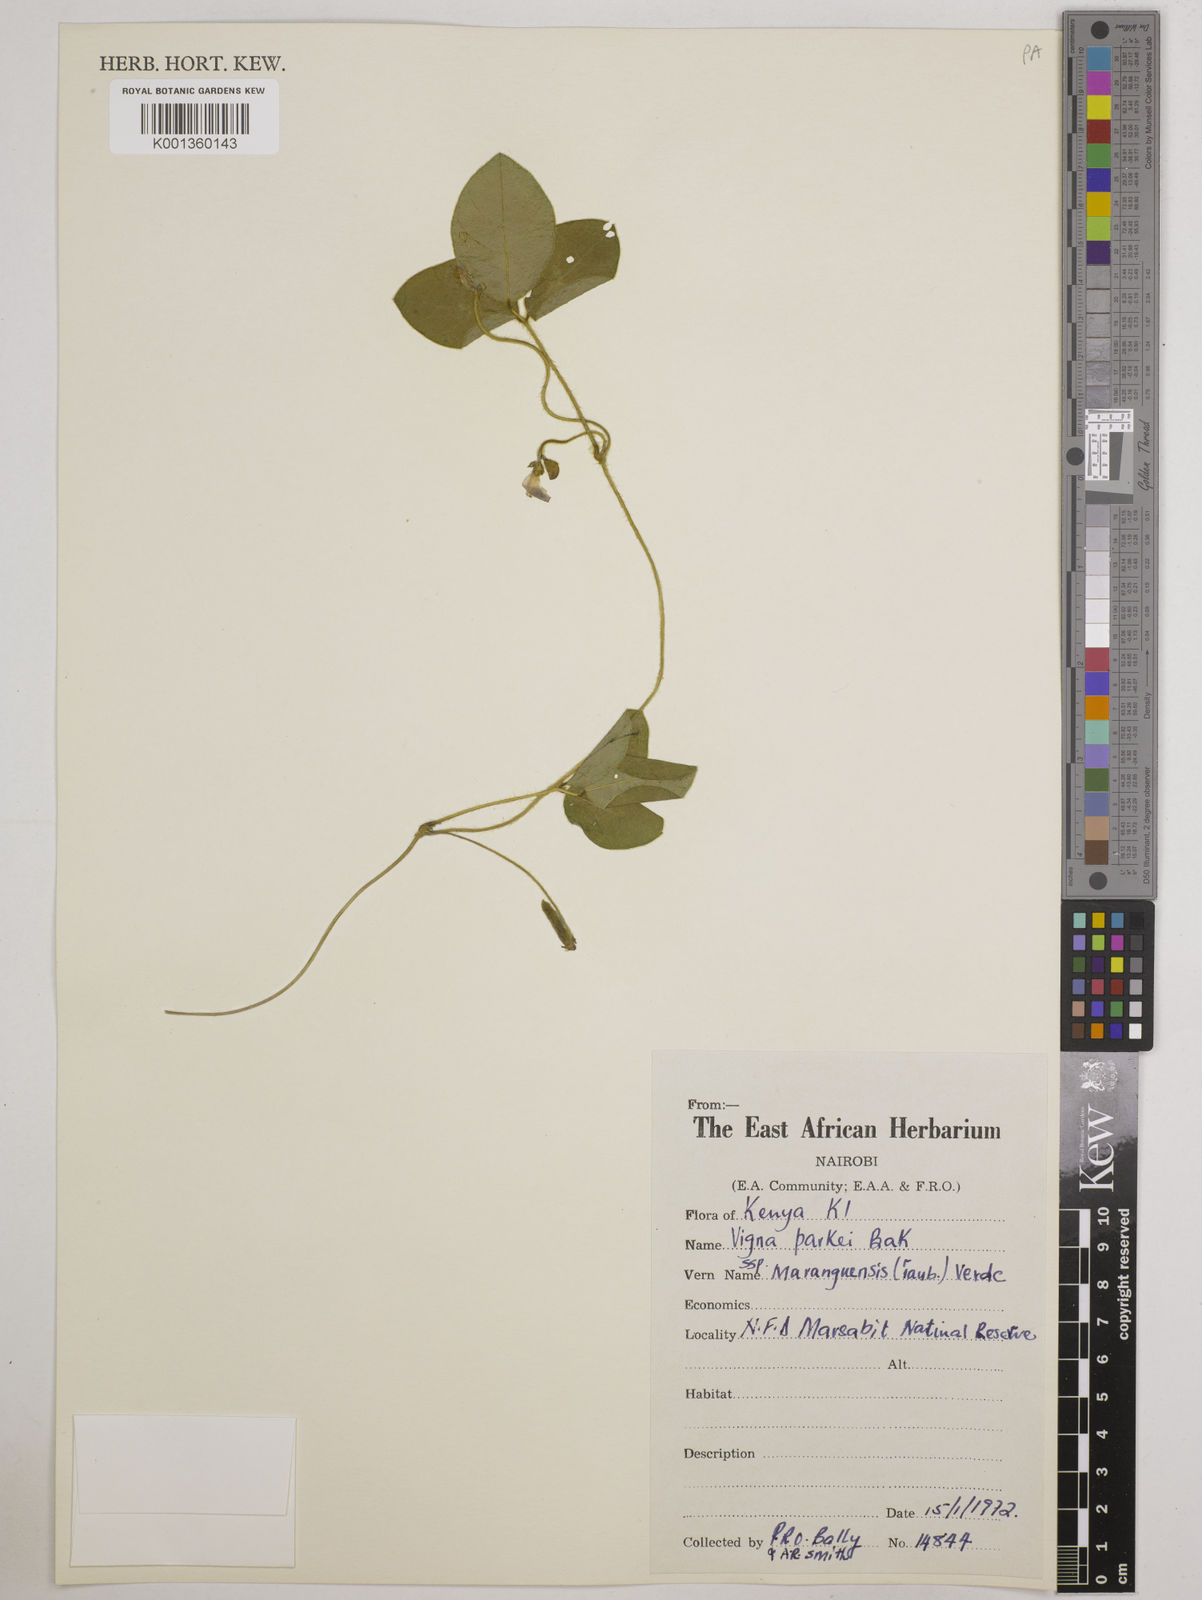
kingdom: Plantae
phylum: Tracheophyta
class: Magnoliopsida
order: Fabales
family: Fabaceae
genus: Vigna
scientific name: Vigna
